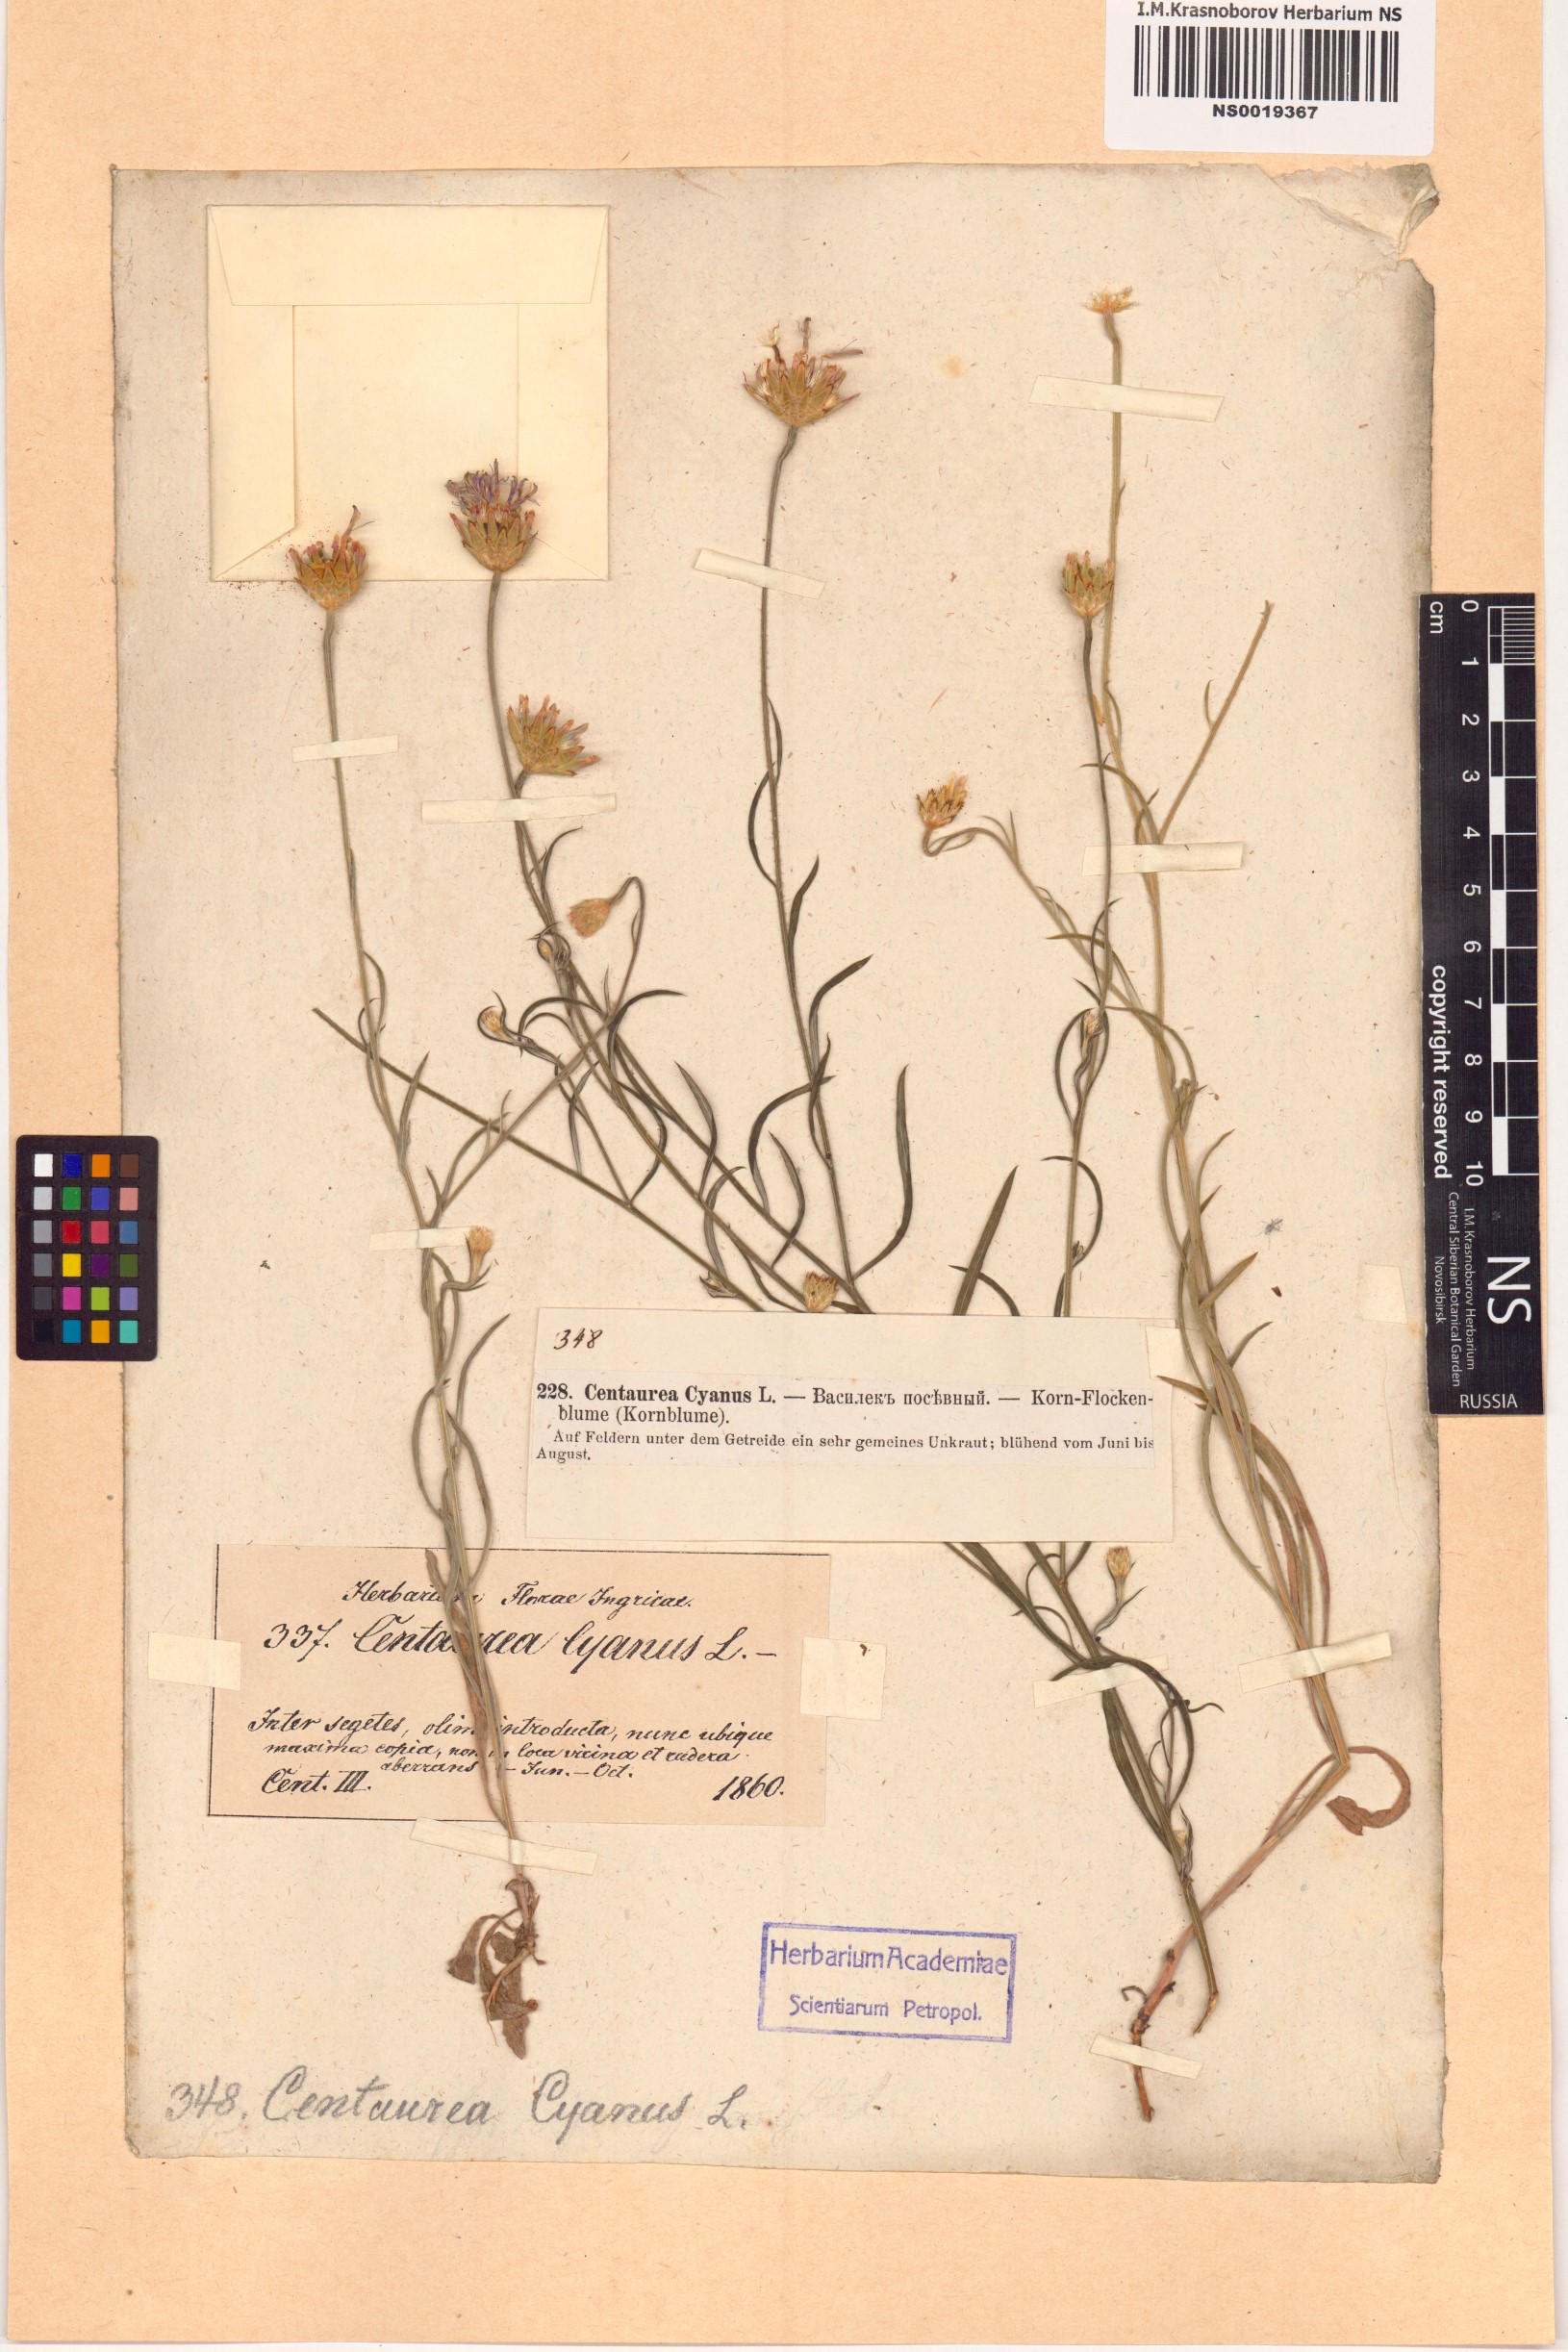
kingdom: Plantae
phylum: Tracheophyta
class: Magnoliopsida
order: Asterales
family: Asteraceae
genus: Centaurea
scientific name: Centaurea cyanus
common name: Cornflower
